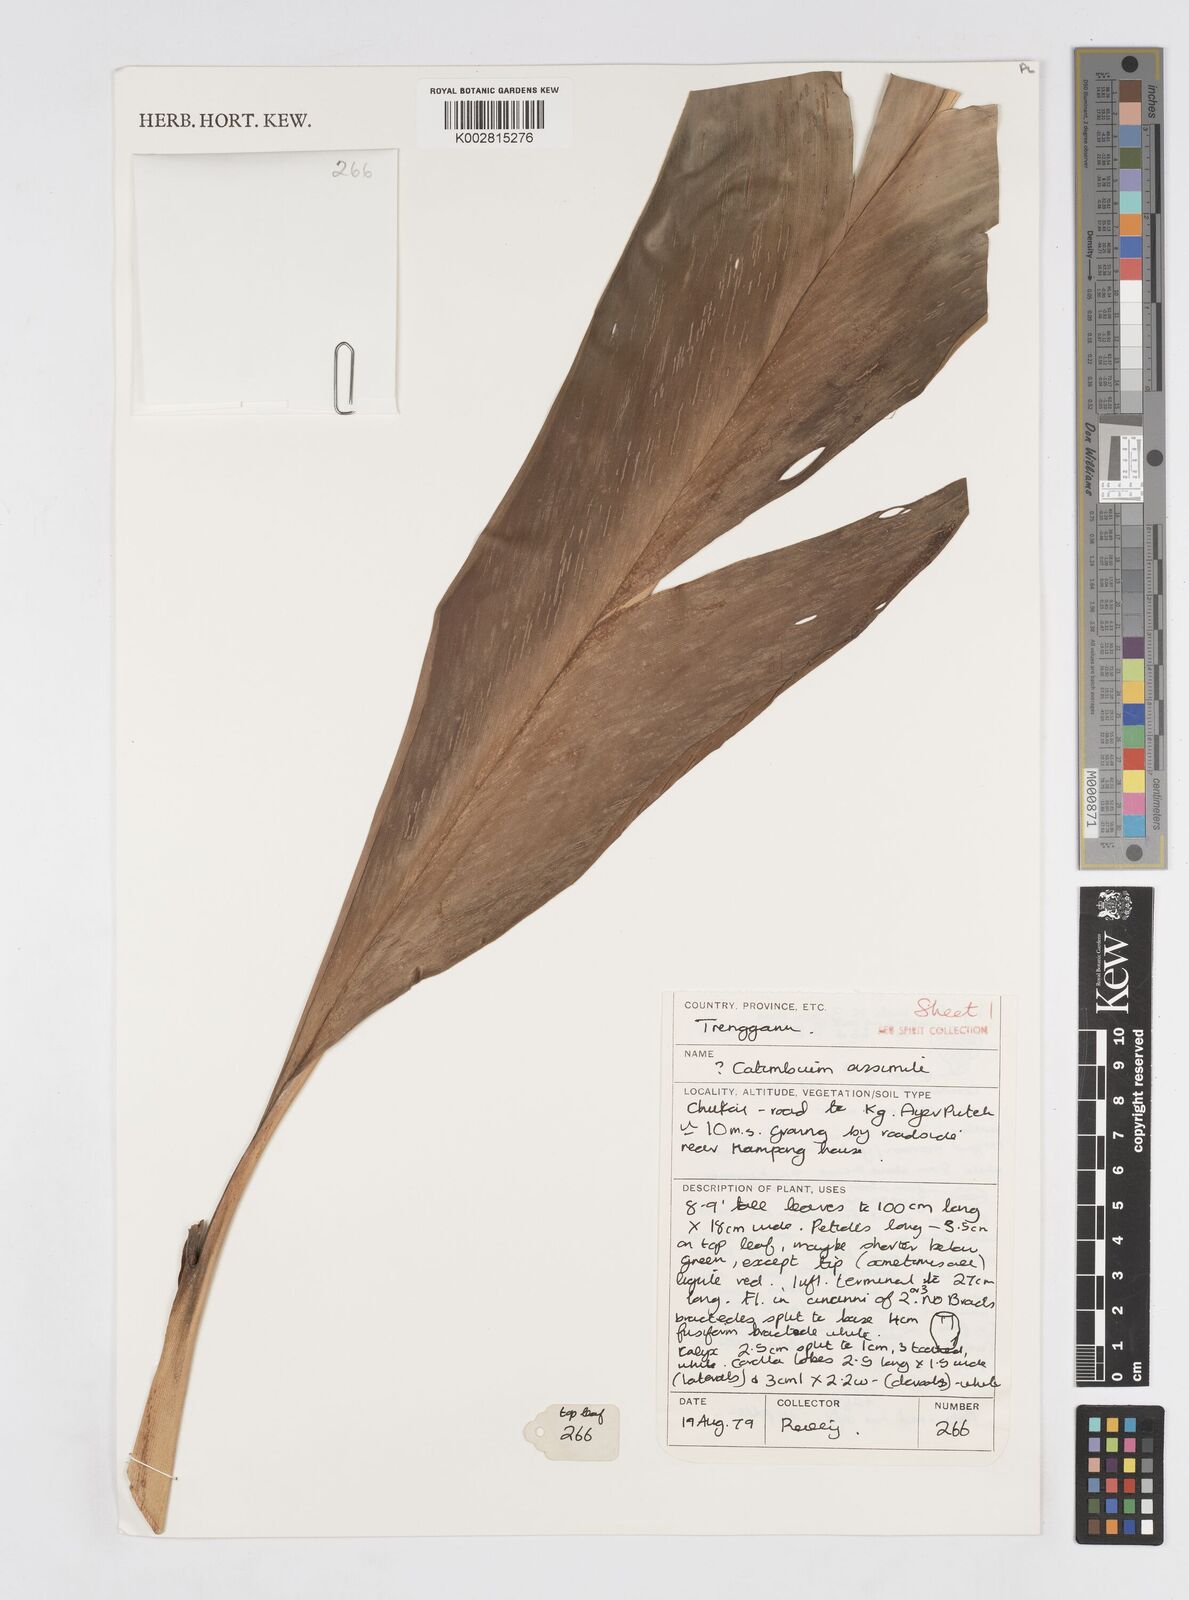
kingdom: Plantae
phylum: Tracheophyta
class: Liliopsida
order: Zingiberales
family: Zingiberaceae
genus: Alpinia
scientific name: Alpinia assimilis
